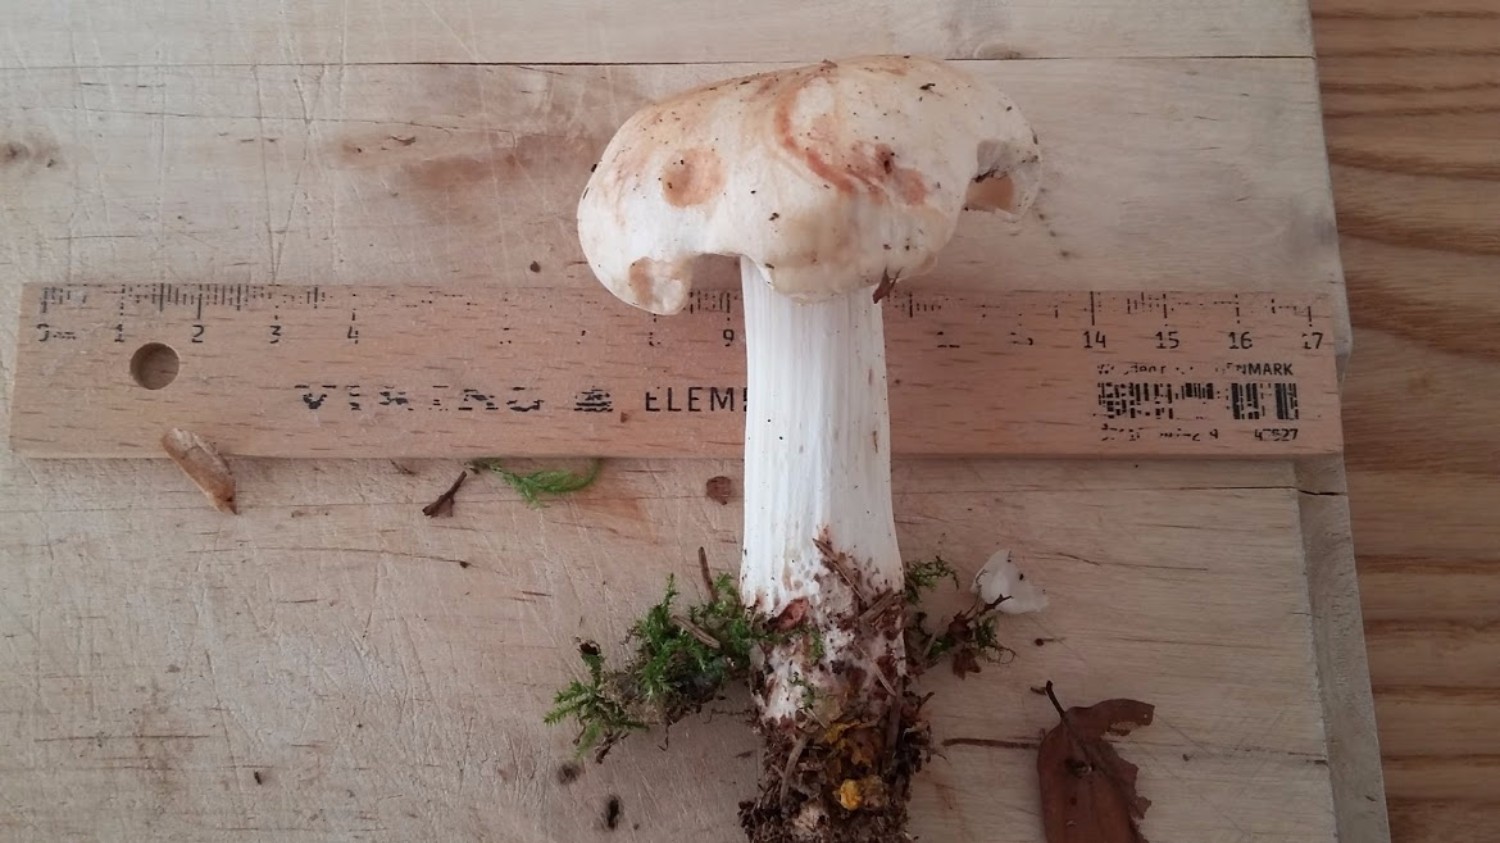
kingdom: Fungi
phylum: Basidiomycota
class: Agaricomycetes
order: Agaricales
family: Omphalotaceae
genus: Rhodocollybia
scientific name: Rhodocollybia maculata
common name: plettet fladhat
